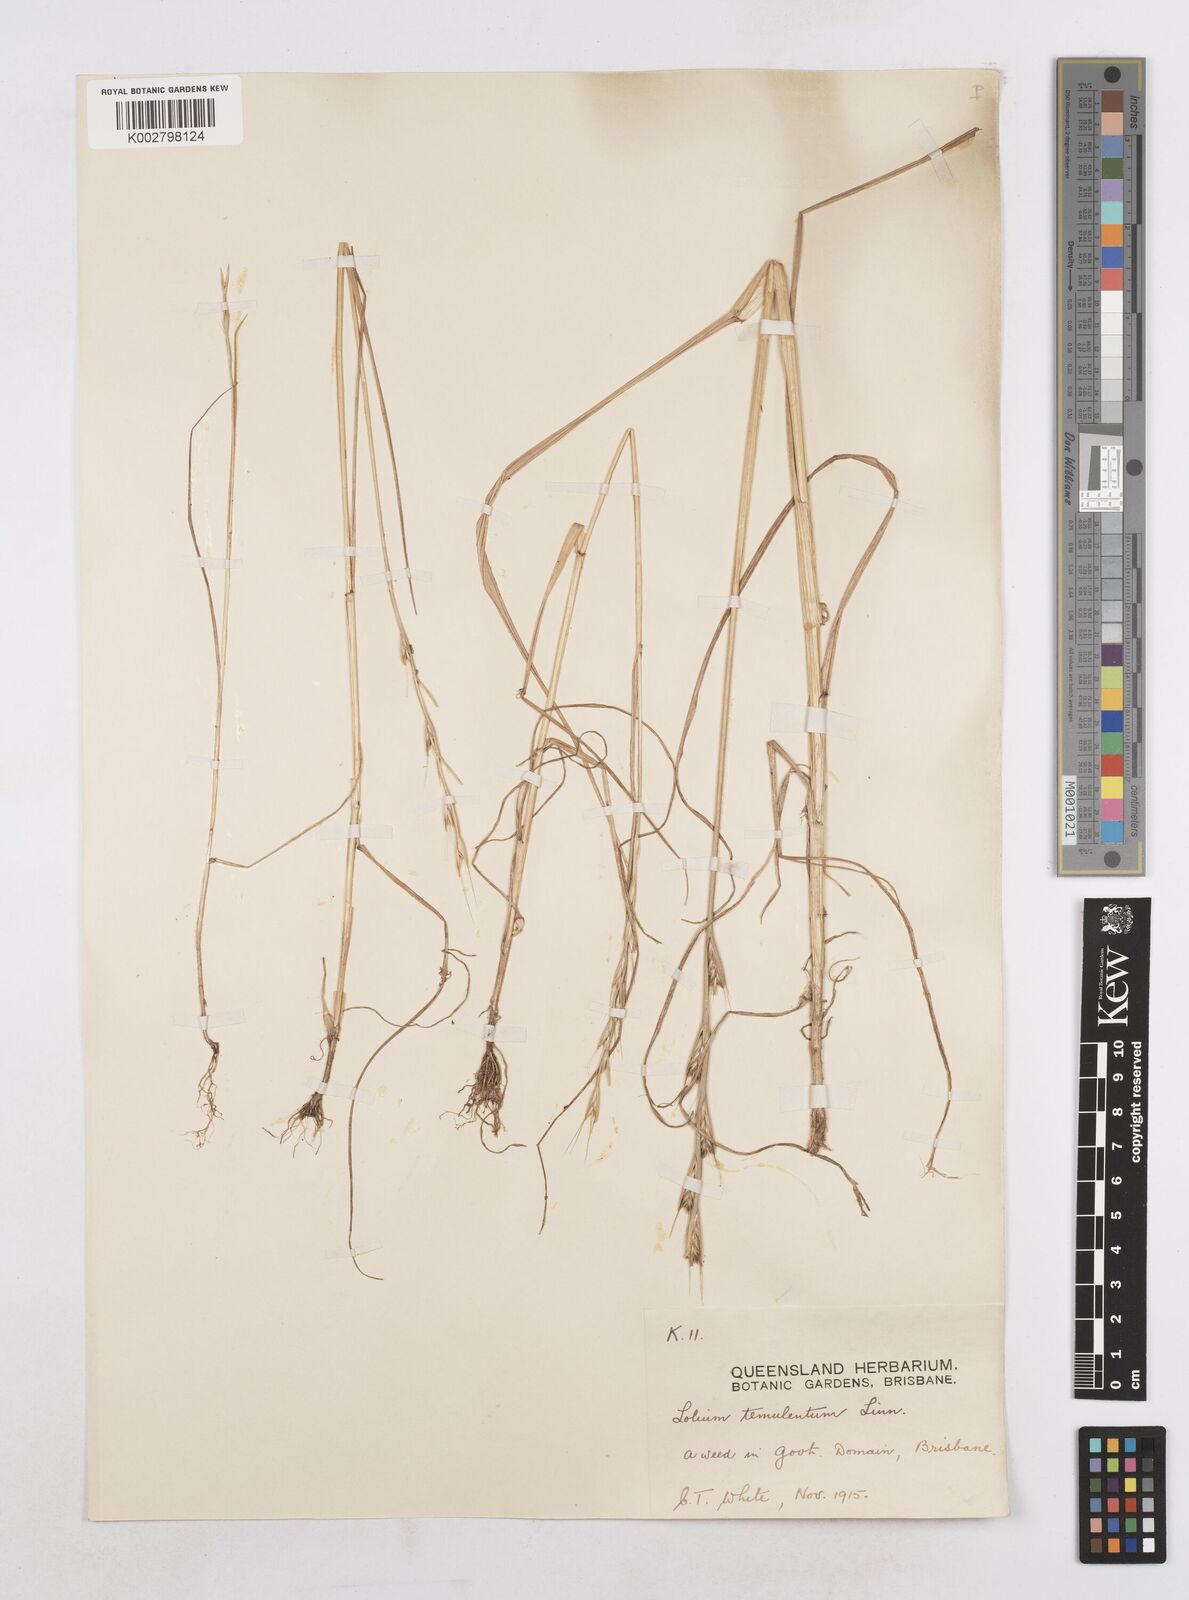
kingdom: Plantae
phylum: Tracheophyta
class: Liliopsida
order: Poales
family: Poaceae
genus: Lolium
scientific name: Lolium temulentum
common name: Darnel
